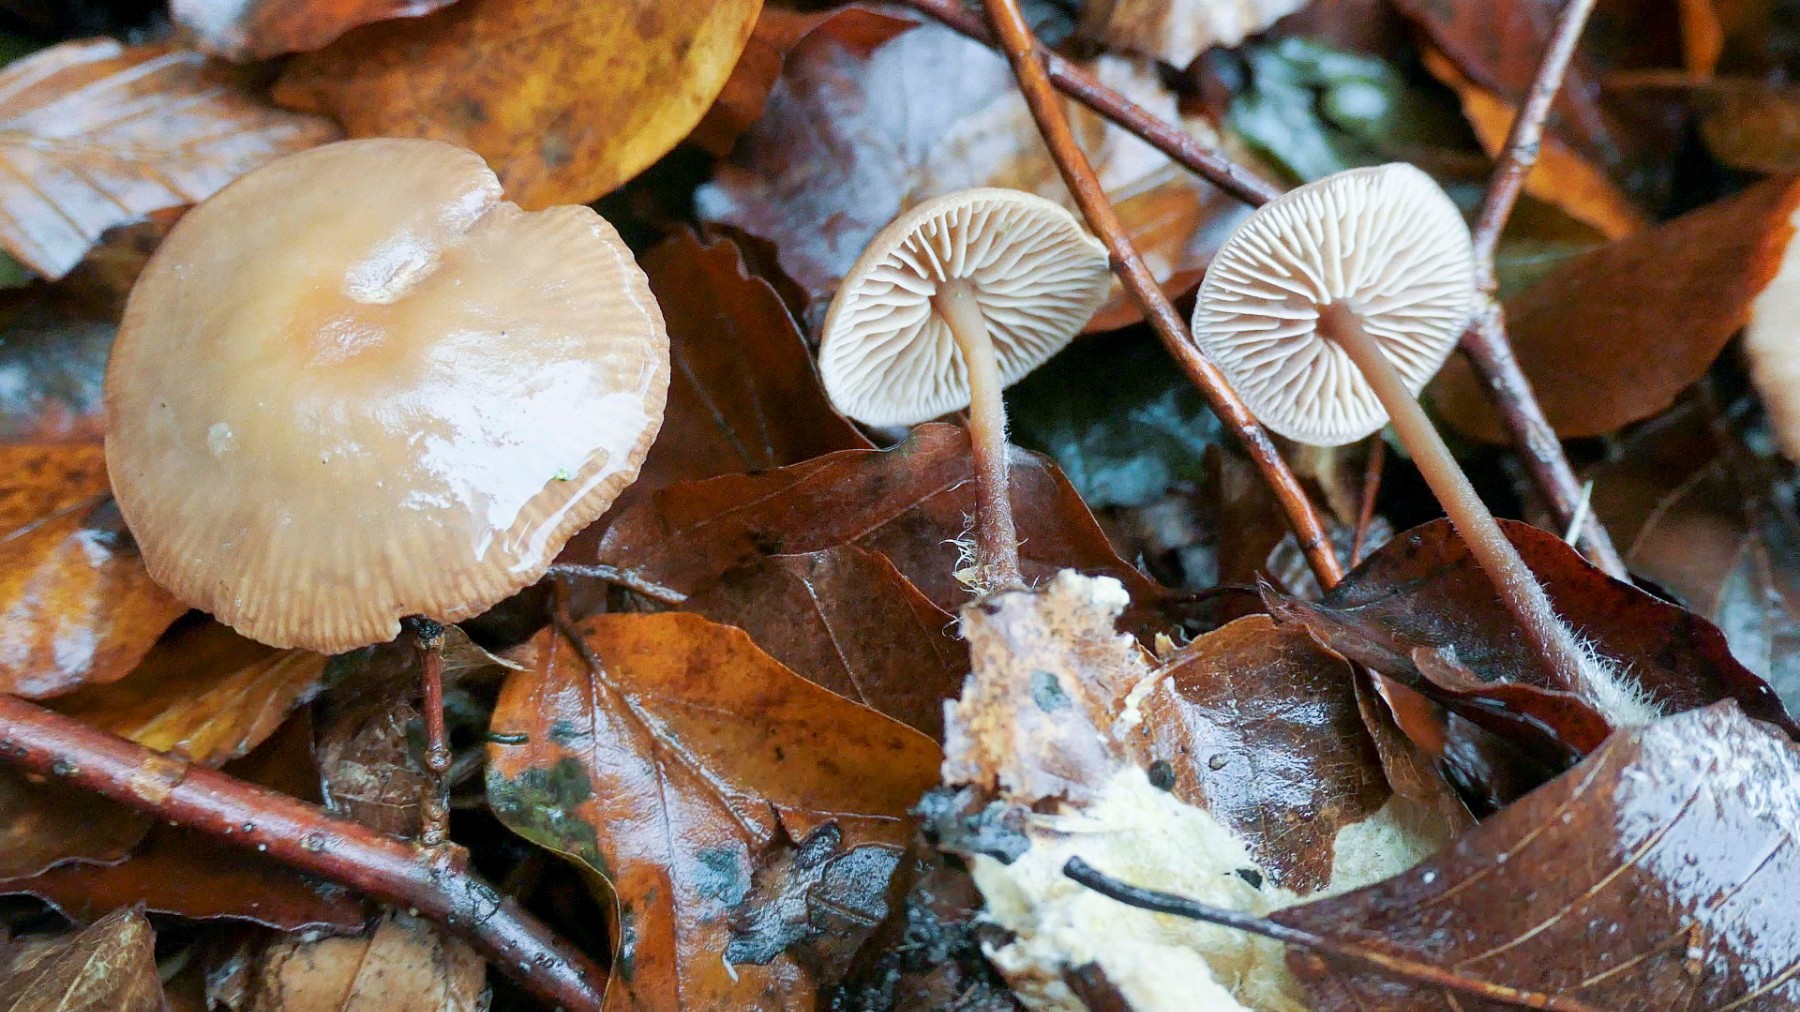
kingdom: Fungi
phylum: Basidiomycota
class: Agaricomycetes
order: Agaricales
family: Omphalotaceae
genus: Gymnopus
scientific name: Gymnopus fagiphilus
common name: bøgeløv-fladhat
